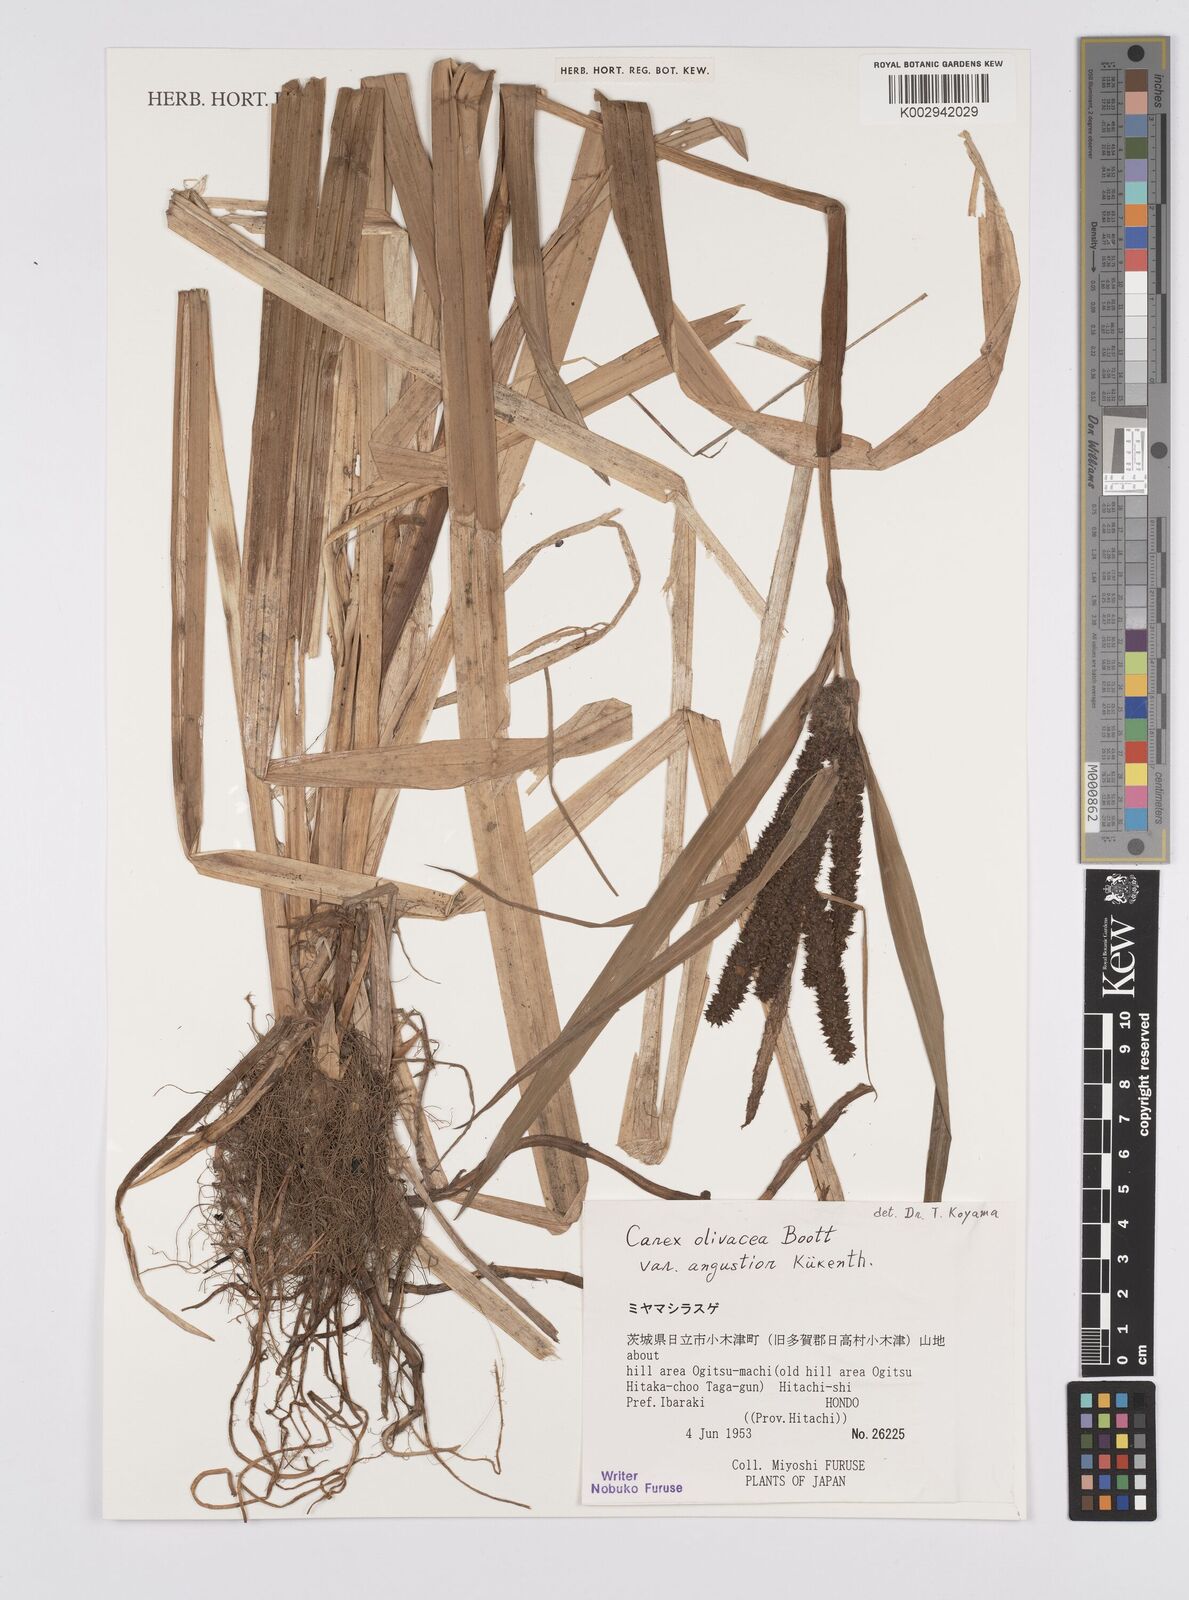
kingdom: Plantae
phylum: Tracheophyta
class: Liliopsida
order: Poales
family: Cyperaceae
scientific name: Cyperaceae
